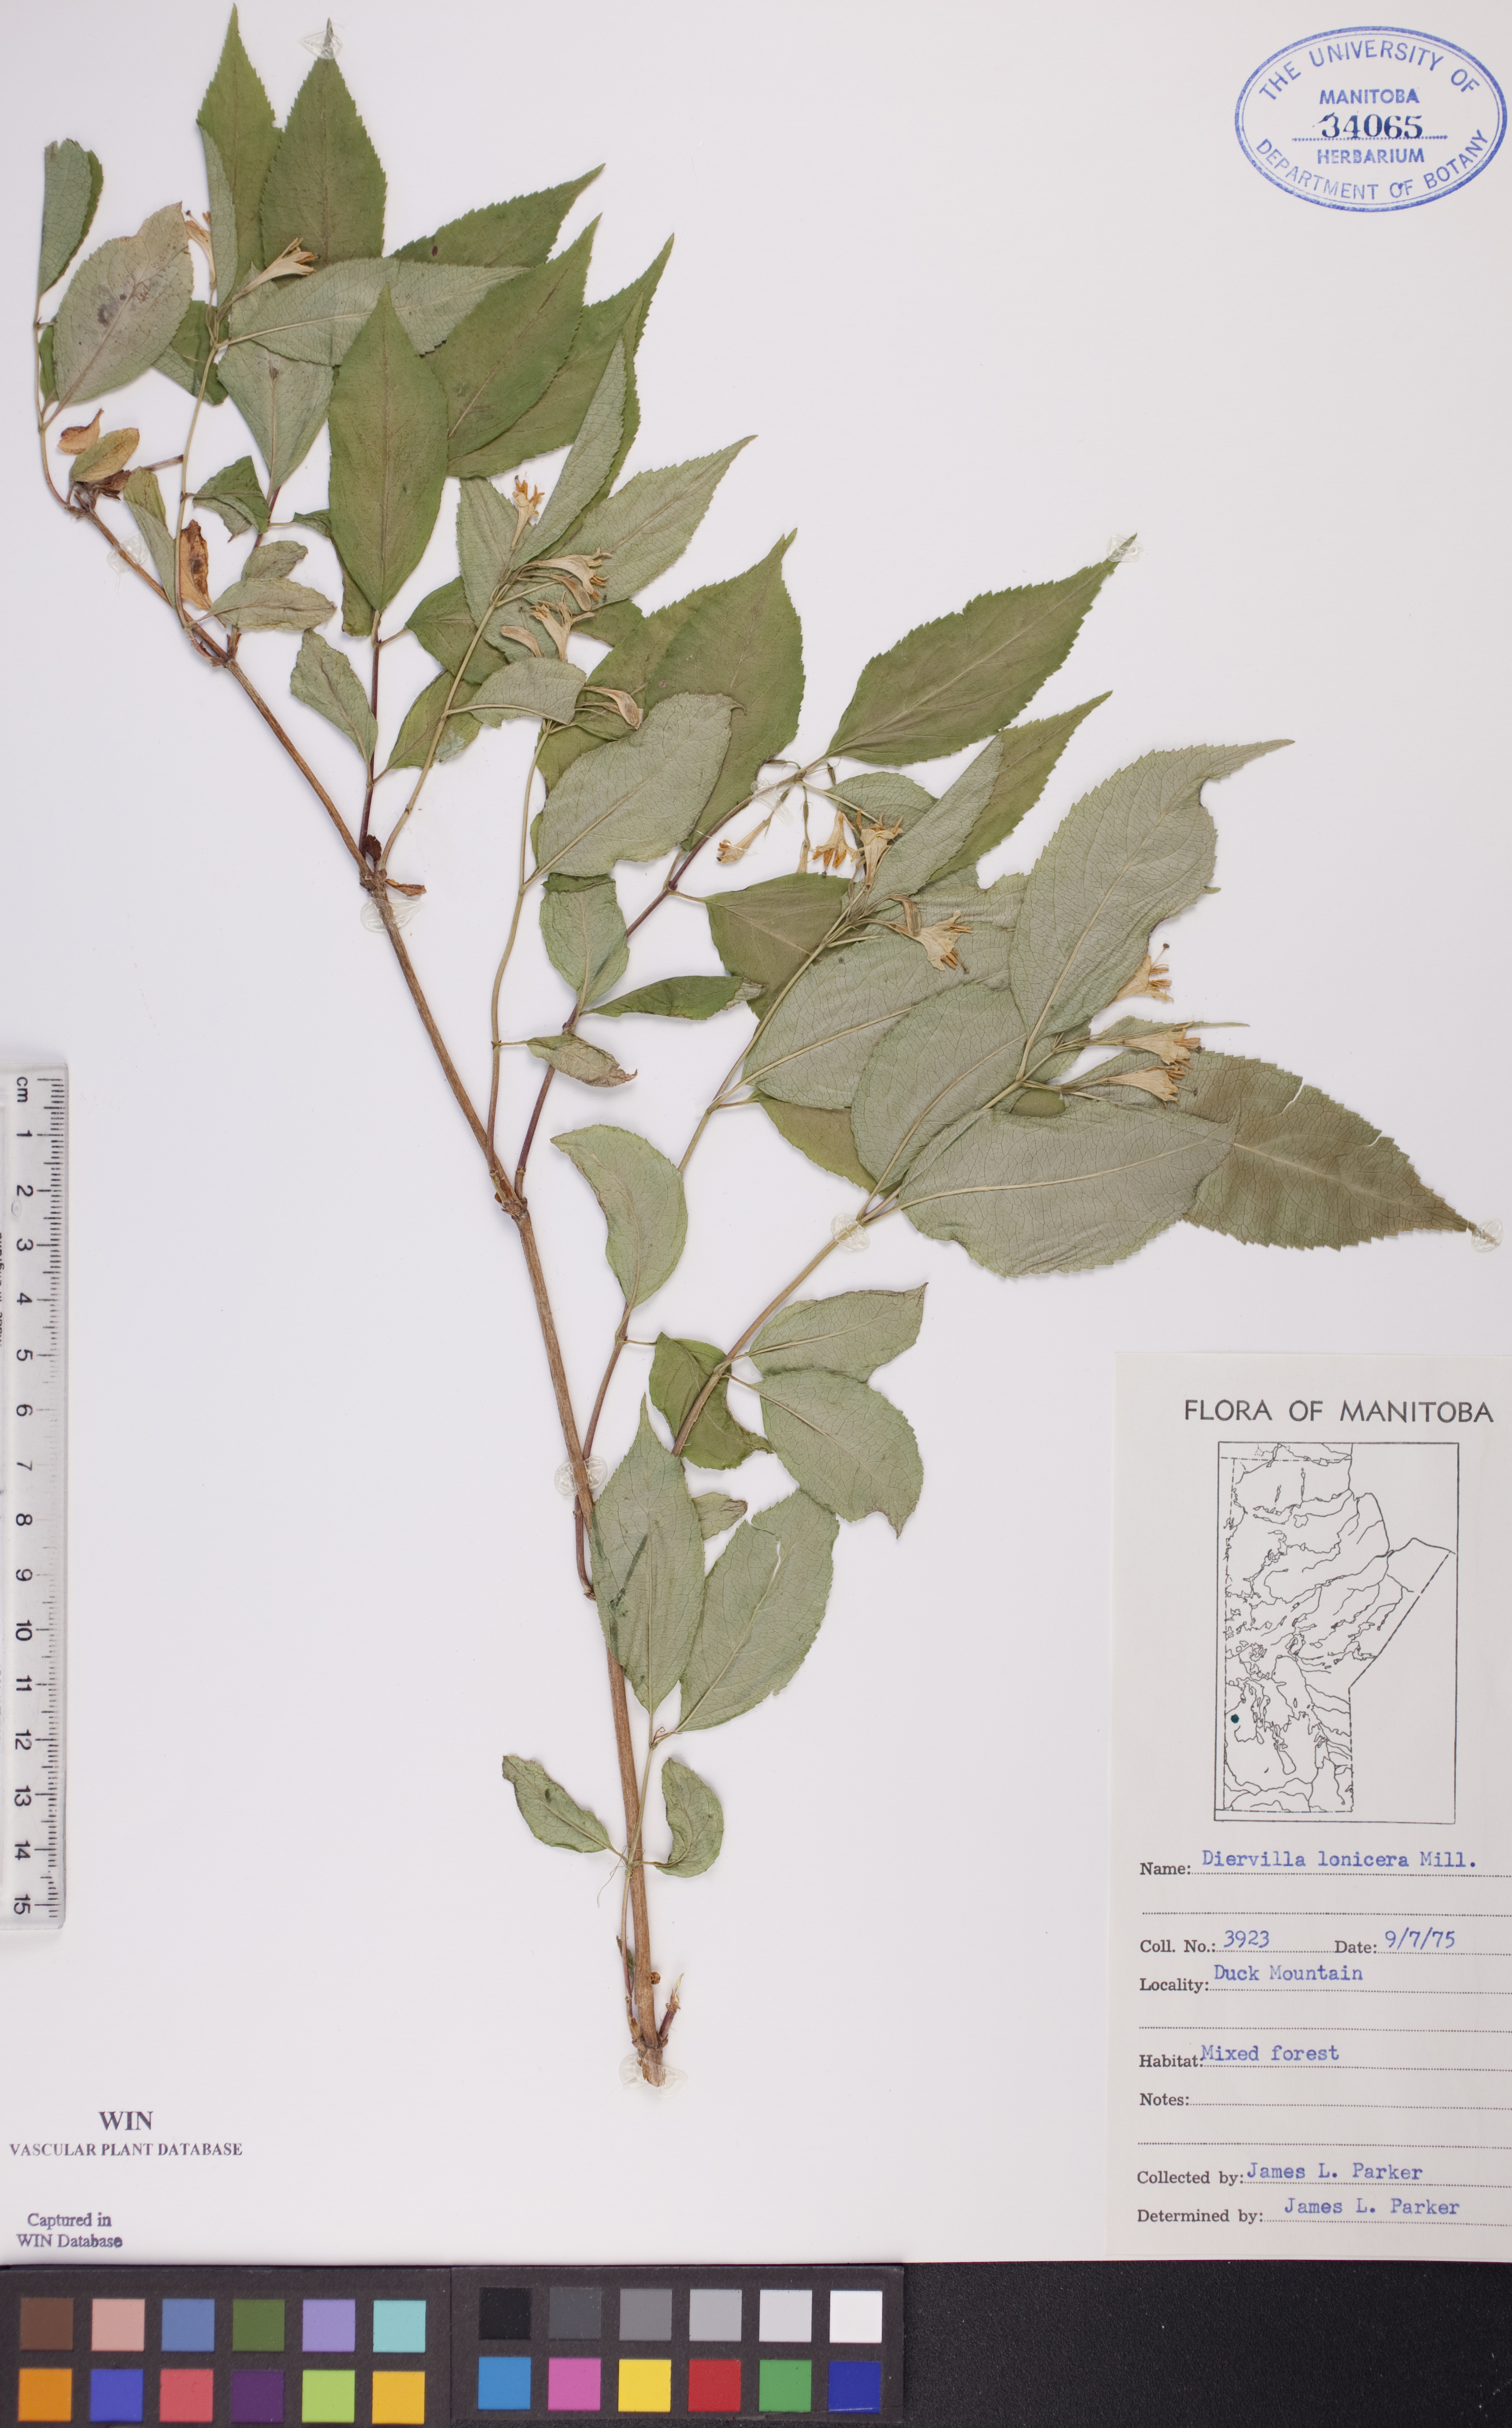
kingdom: Plantae
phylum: Tracheophyta
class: Magnoliopsida
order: Dipsacales
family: Caprifoliaceae
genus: Diervilla
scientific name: Diervilla lonicera
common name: Bush-honeysuckle
